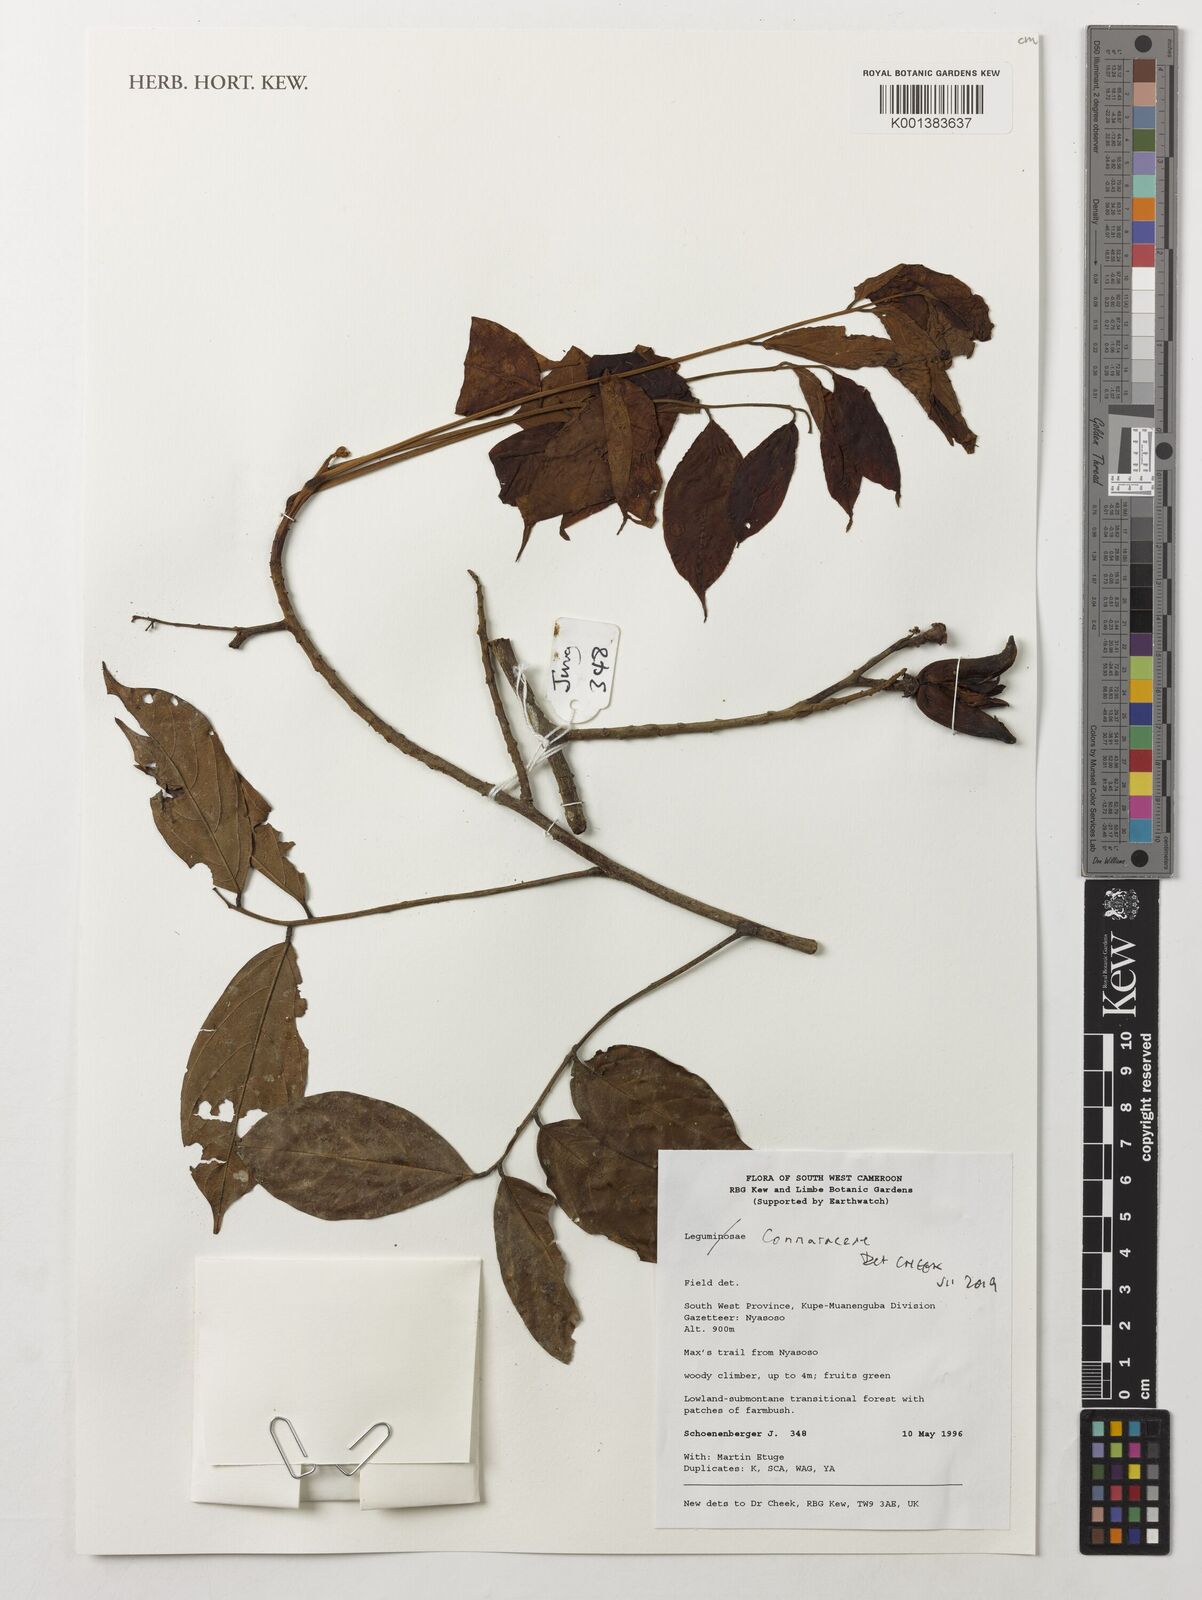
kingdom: Plantae
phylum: Tracheophyta
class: Magnoliopsida
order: Oxalidales
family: Connaraceae
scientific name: Connaraceae
